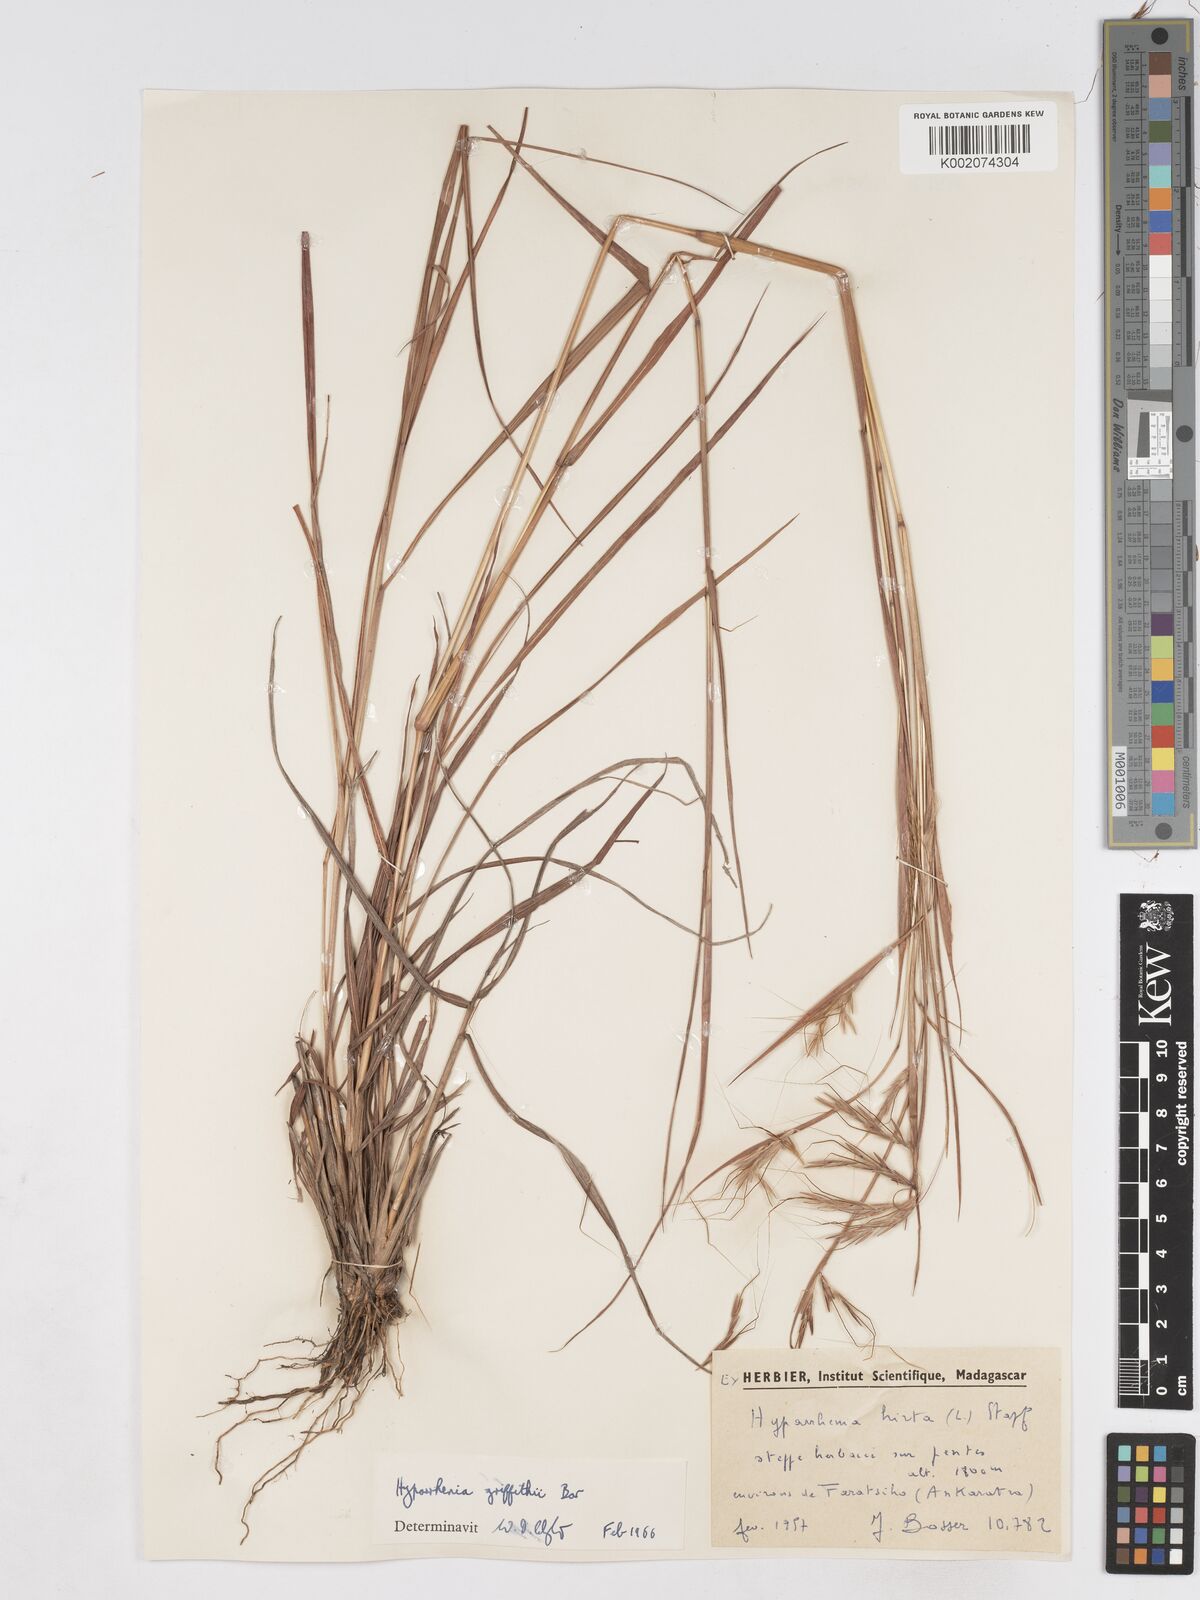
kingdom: Plantae
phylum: Tracheophyta
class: Liliopsida
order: Poales
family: Poaceae
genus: Hyparrhenia
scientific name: Hyparrhenia griffithii
